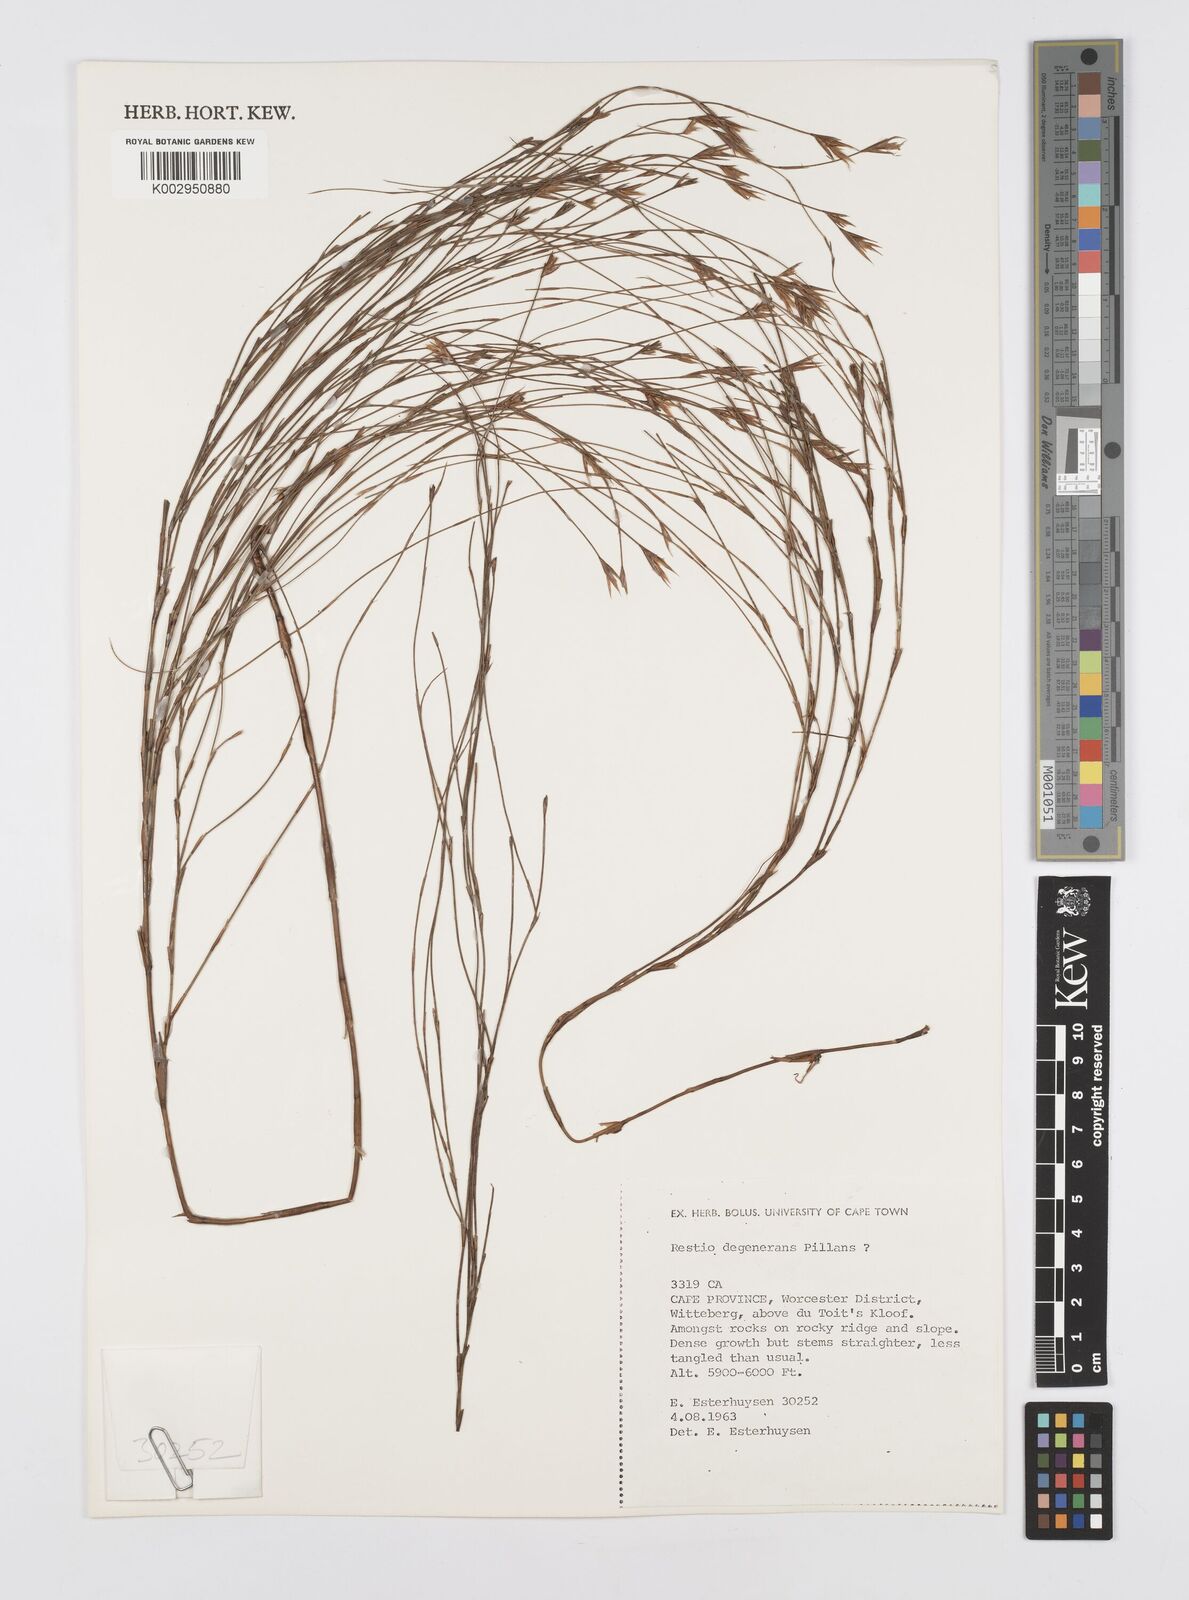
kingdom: Plantae
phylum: Tracheophyta
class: Liliopsida
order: Poales
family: Restionaceae
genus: Restio
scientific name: Restio degenerans
